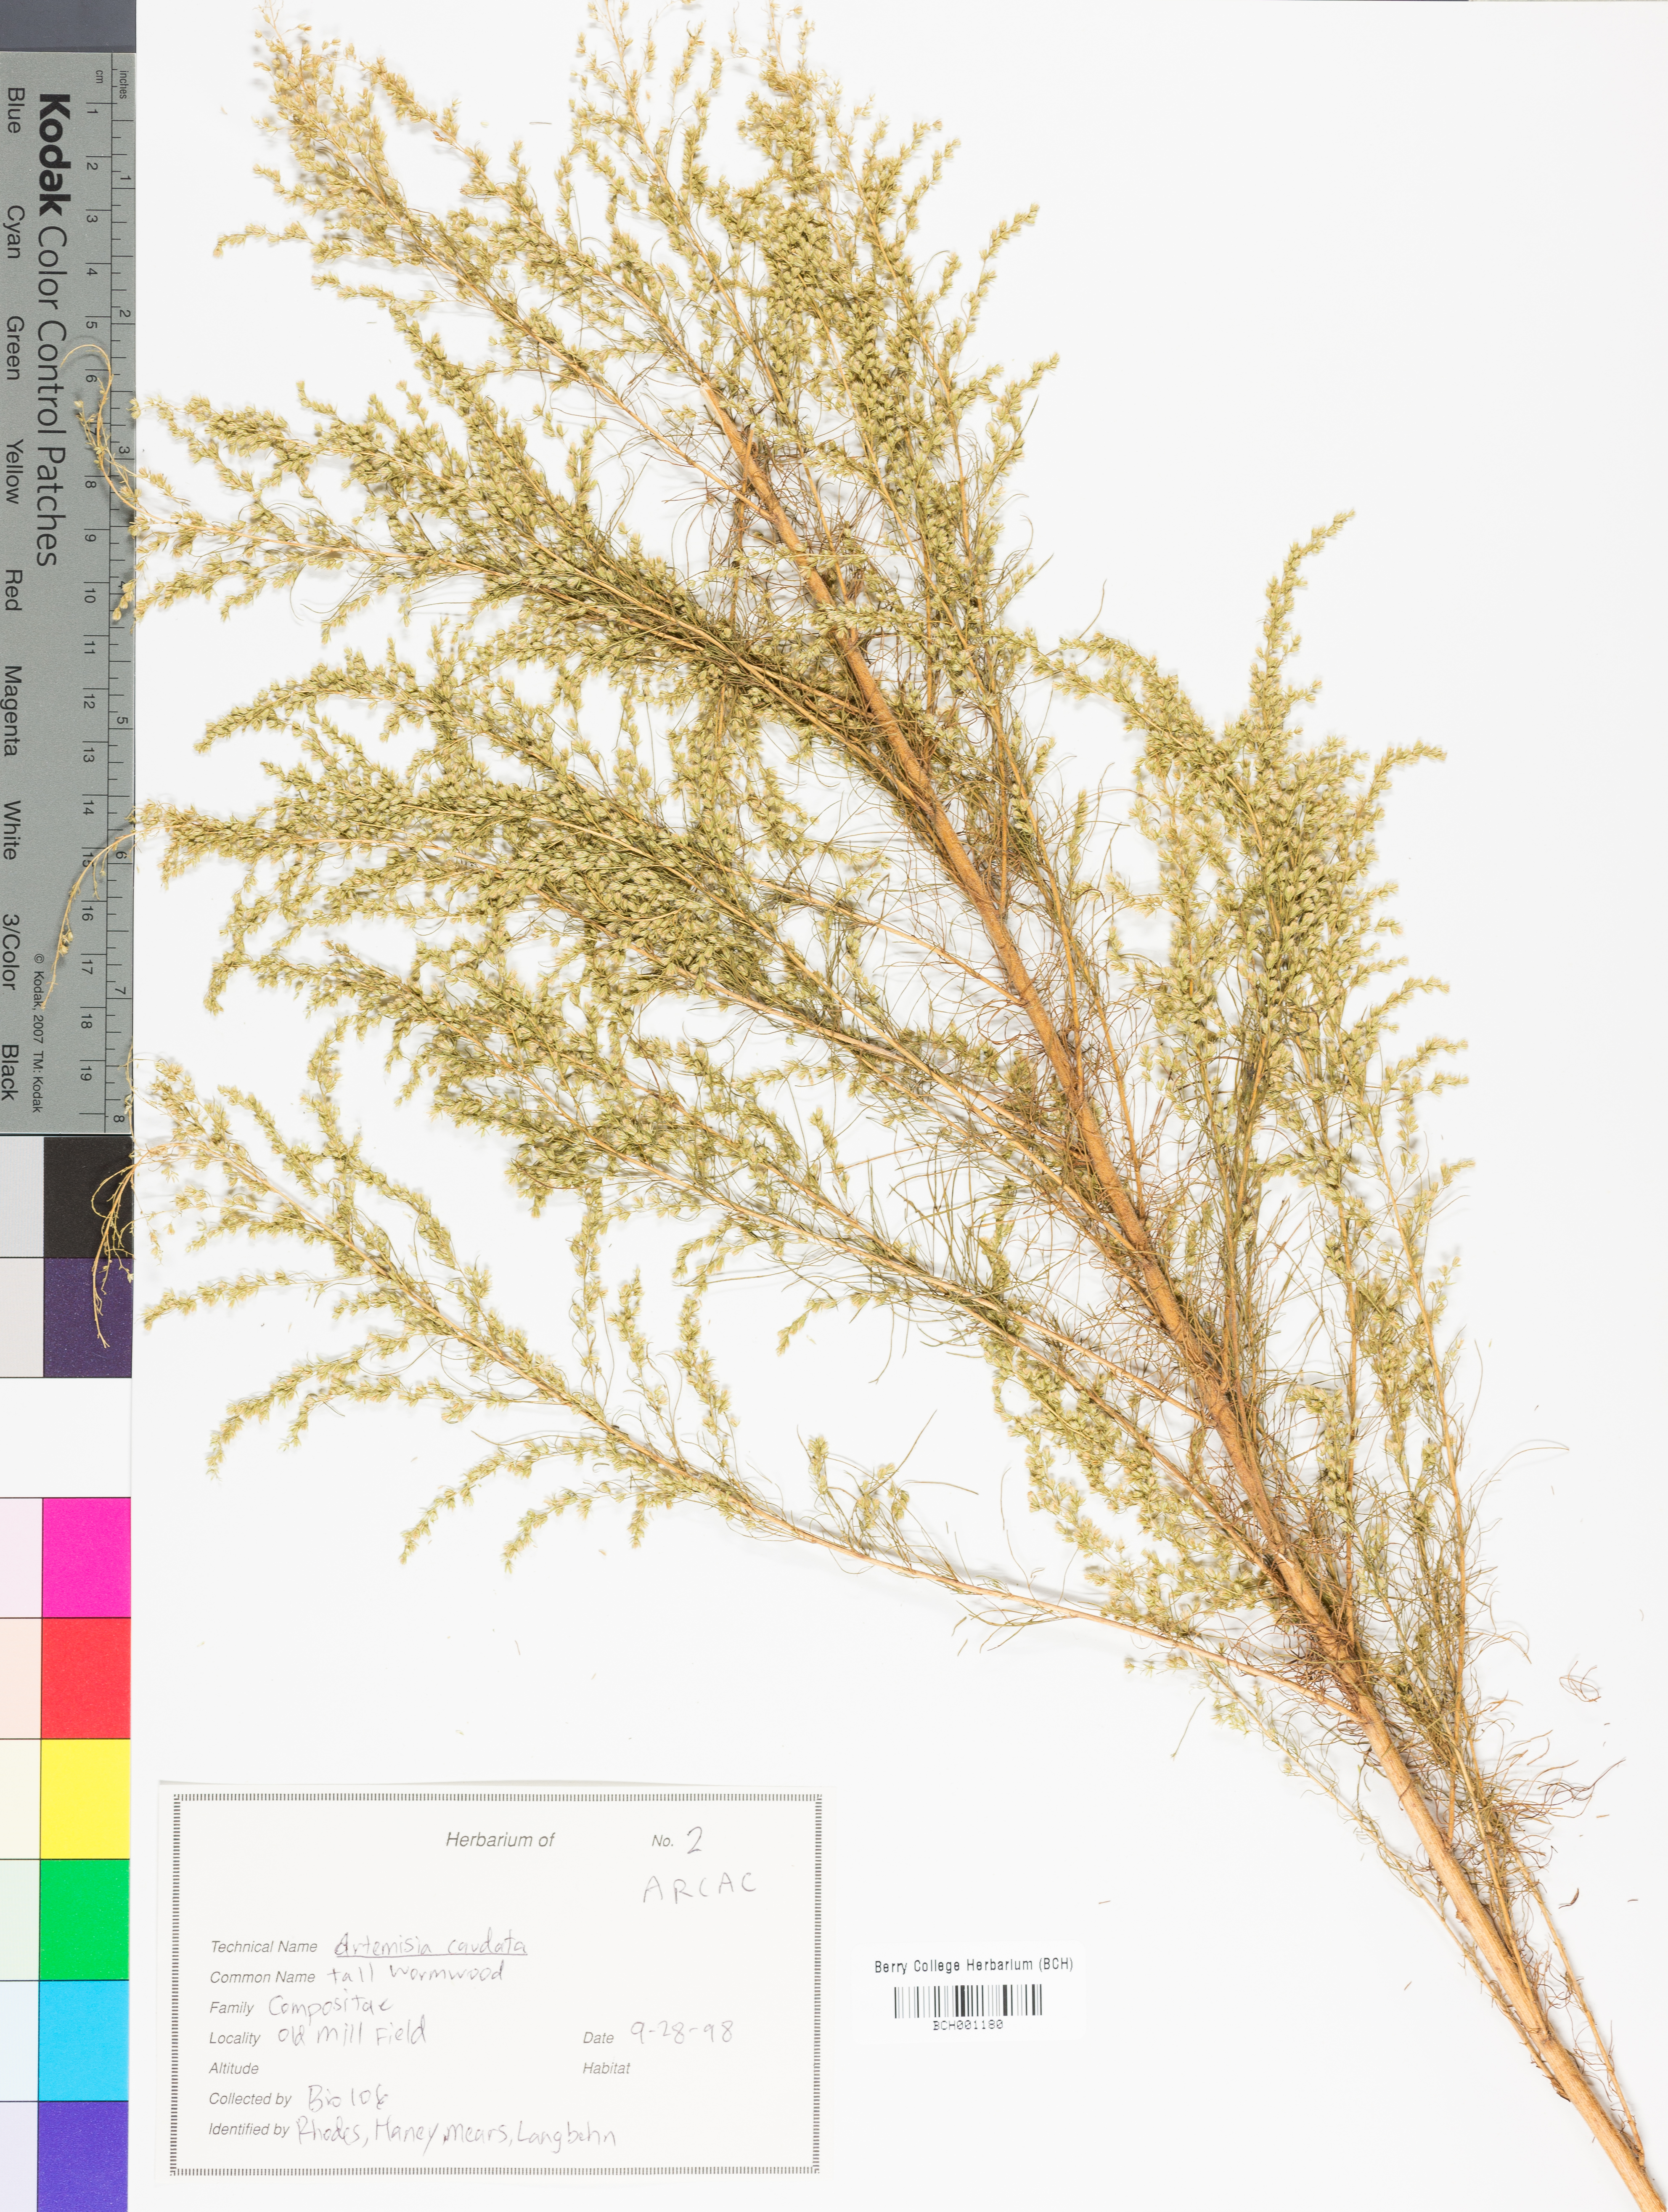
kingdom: Plantae
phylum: Tracheophyta
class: Magnoliopsida
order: Asterales
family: Asteraceae
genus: Artemisia
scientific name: Artemisia campestris
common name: Field wormwood
